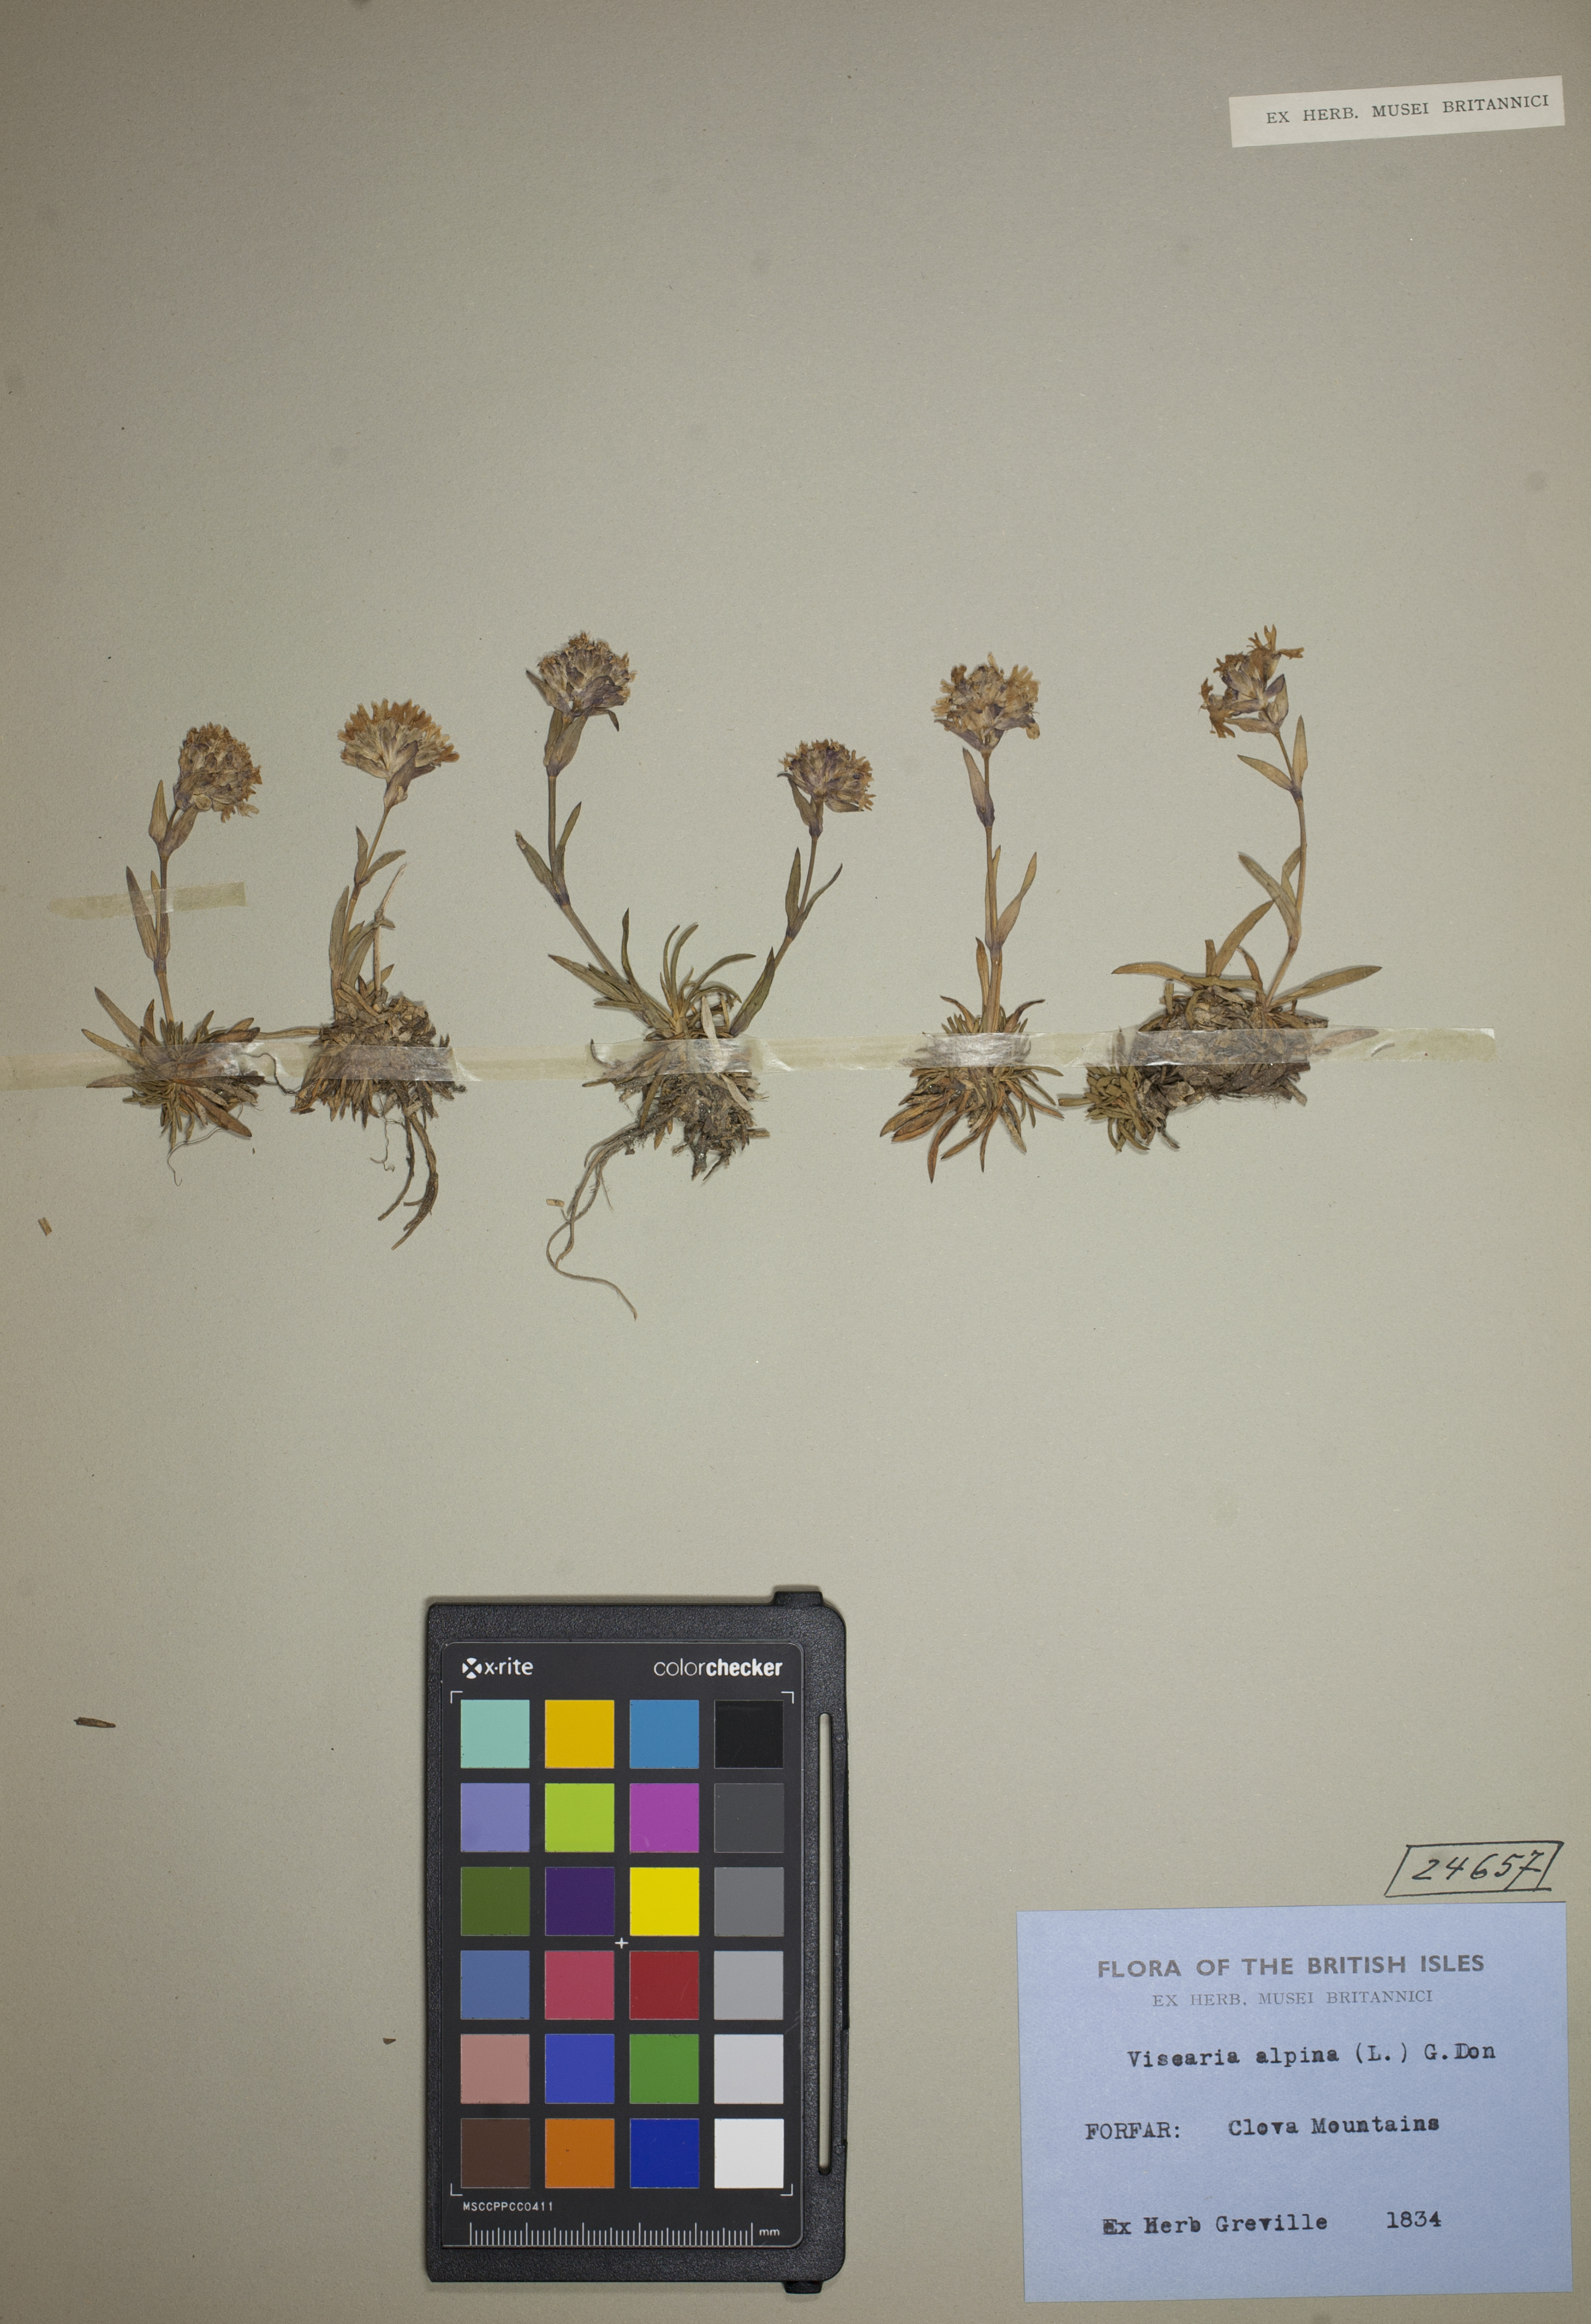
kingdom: Plantae
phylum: Tracheophyta
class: Magnoliopsida
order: Caryophyllales
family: Caryophyllaceae
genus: Viscaria
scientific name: Viscaria alpina
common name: Alpine campion
